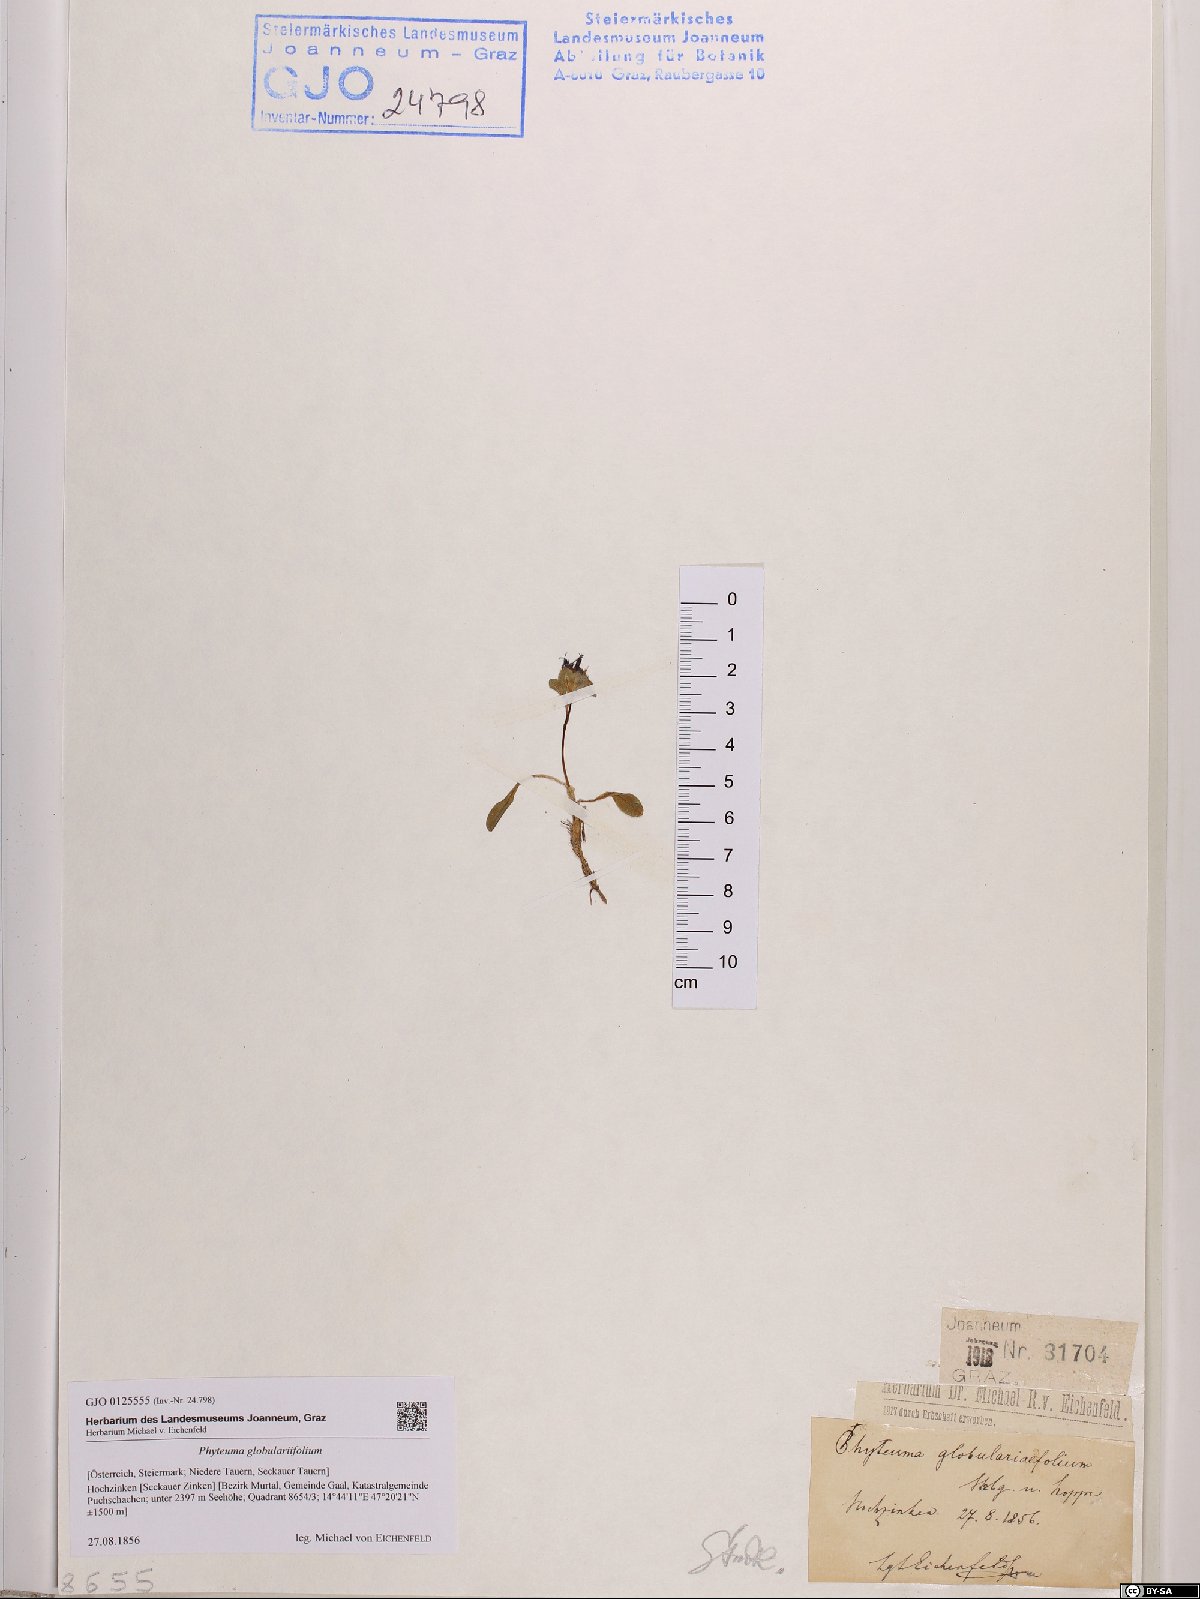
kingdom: Plantae
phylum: Tracheophyta
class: Magnoliopsida
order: Asterales
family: Campanulaceae
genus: Phyteuma
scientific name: Phyteuma globulariifolium
